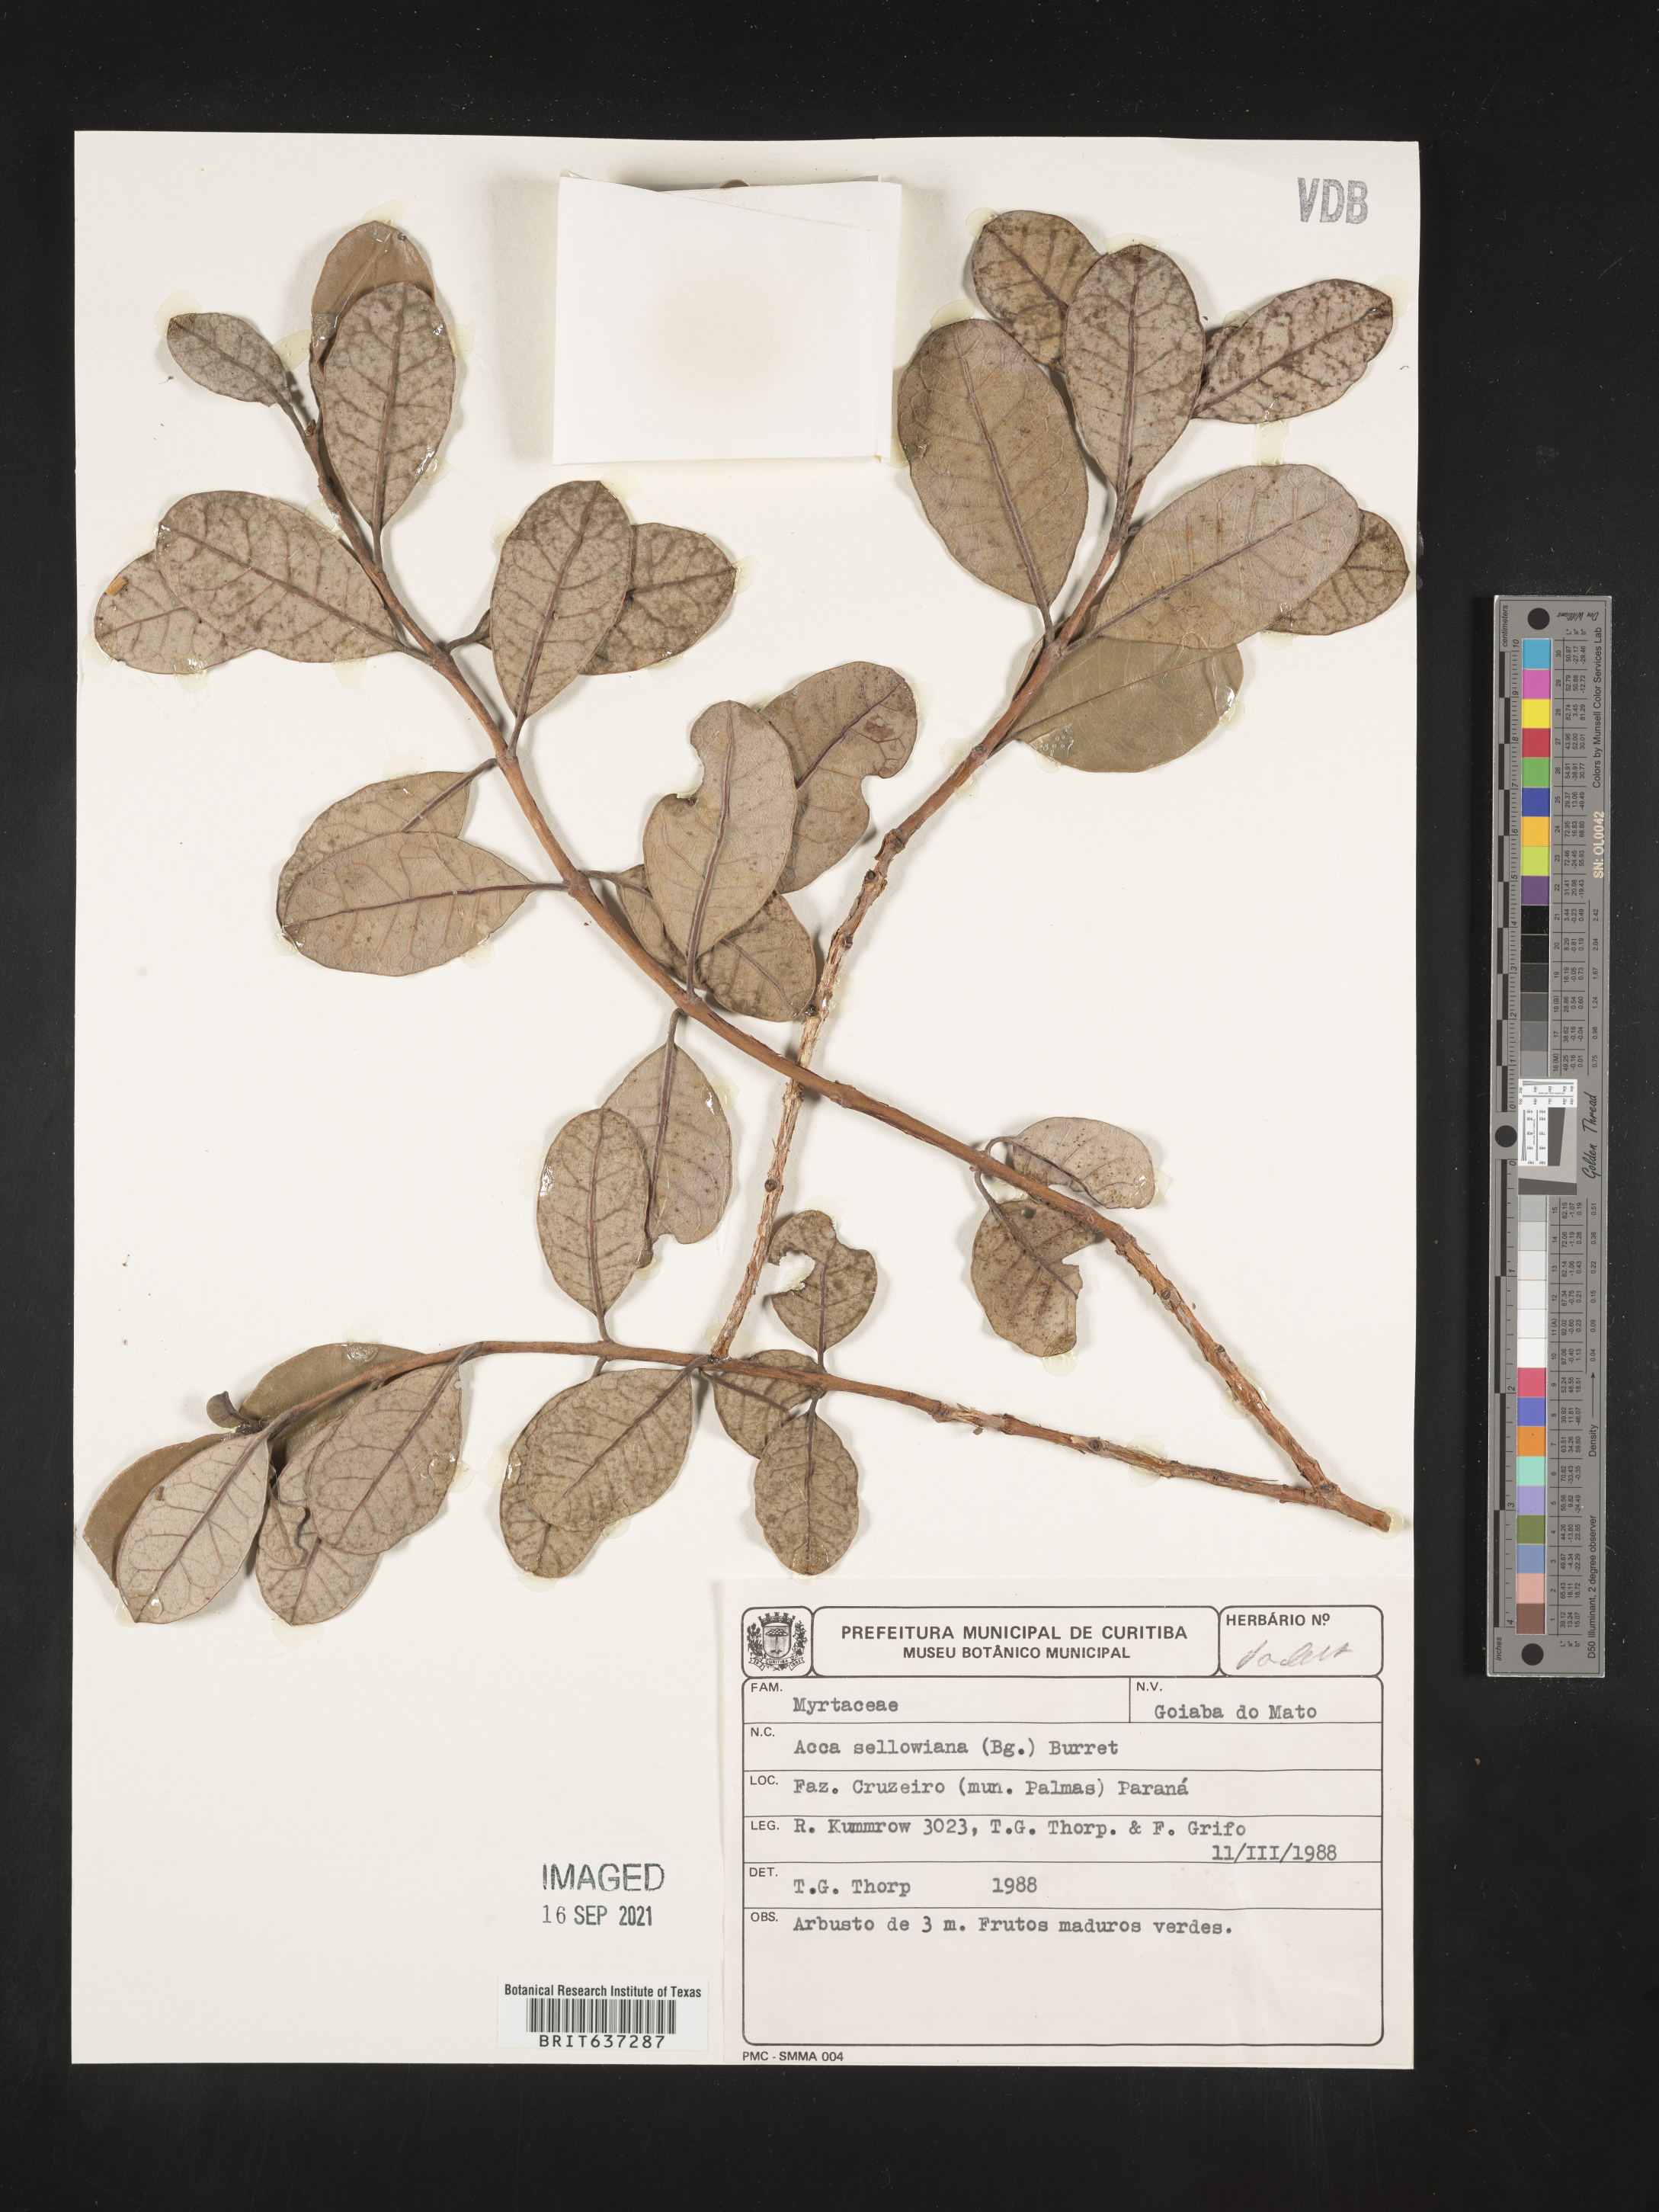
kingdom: Plantae
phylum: Tracheophyta
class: Magnoliopsida
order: Myrtales
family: Myrtaceae
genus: Feijoa
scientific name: Feijoa sellowiana
